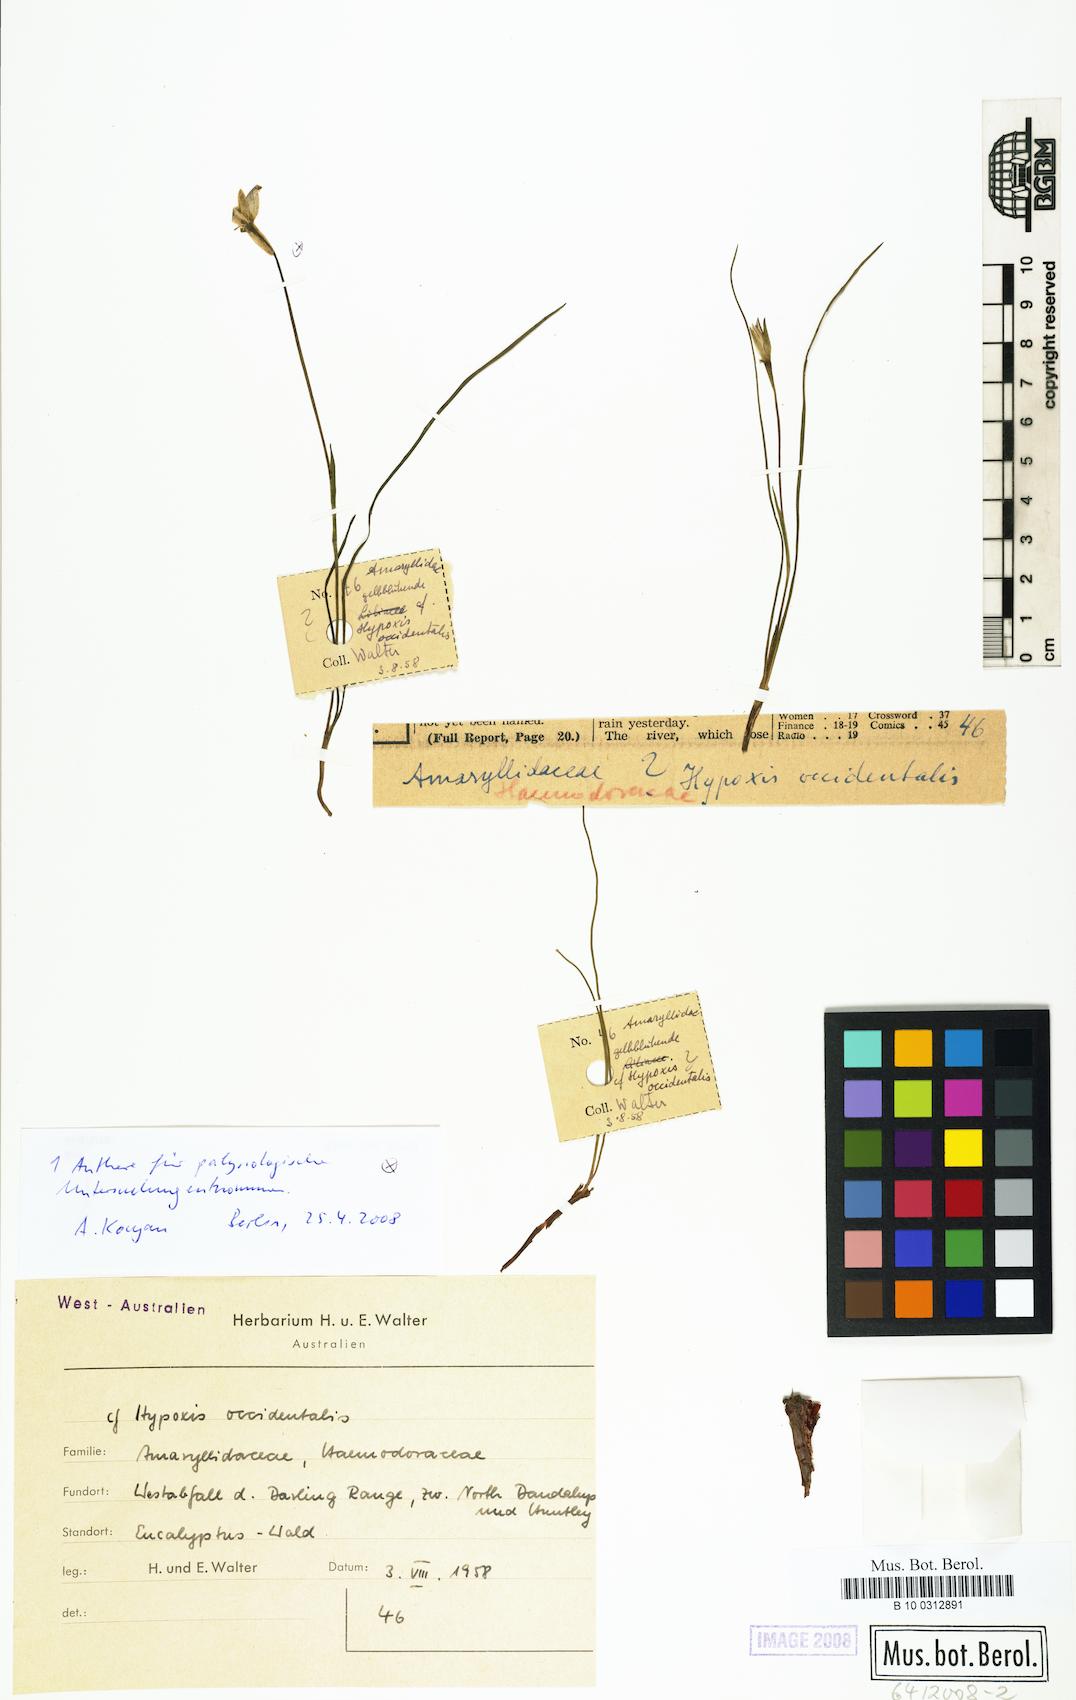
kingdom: Plantae
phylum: Tracheophyta
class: Liliopsida
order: Asparagales
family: Hypoxidaceae
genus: Pauridia
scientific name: Pauridia occidentalis
